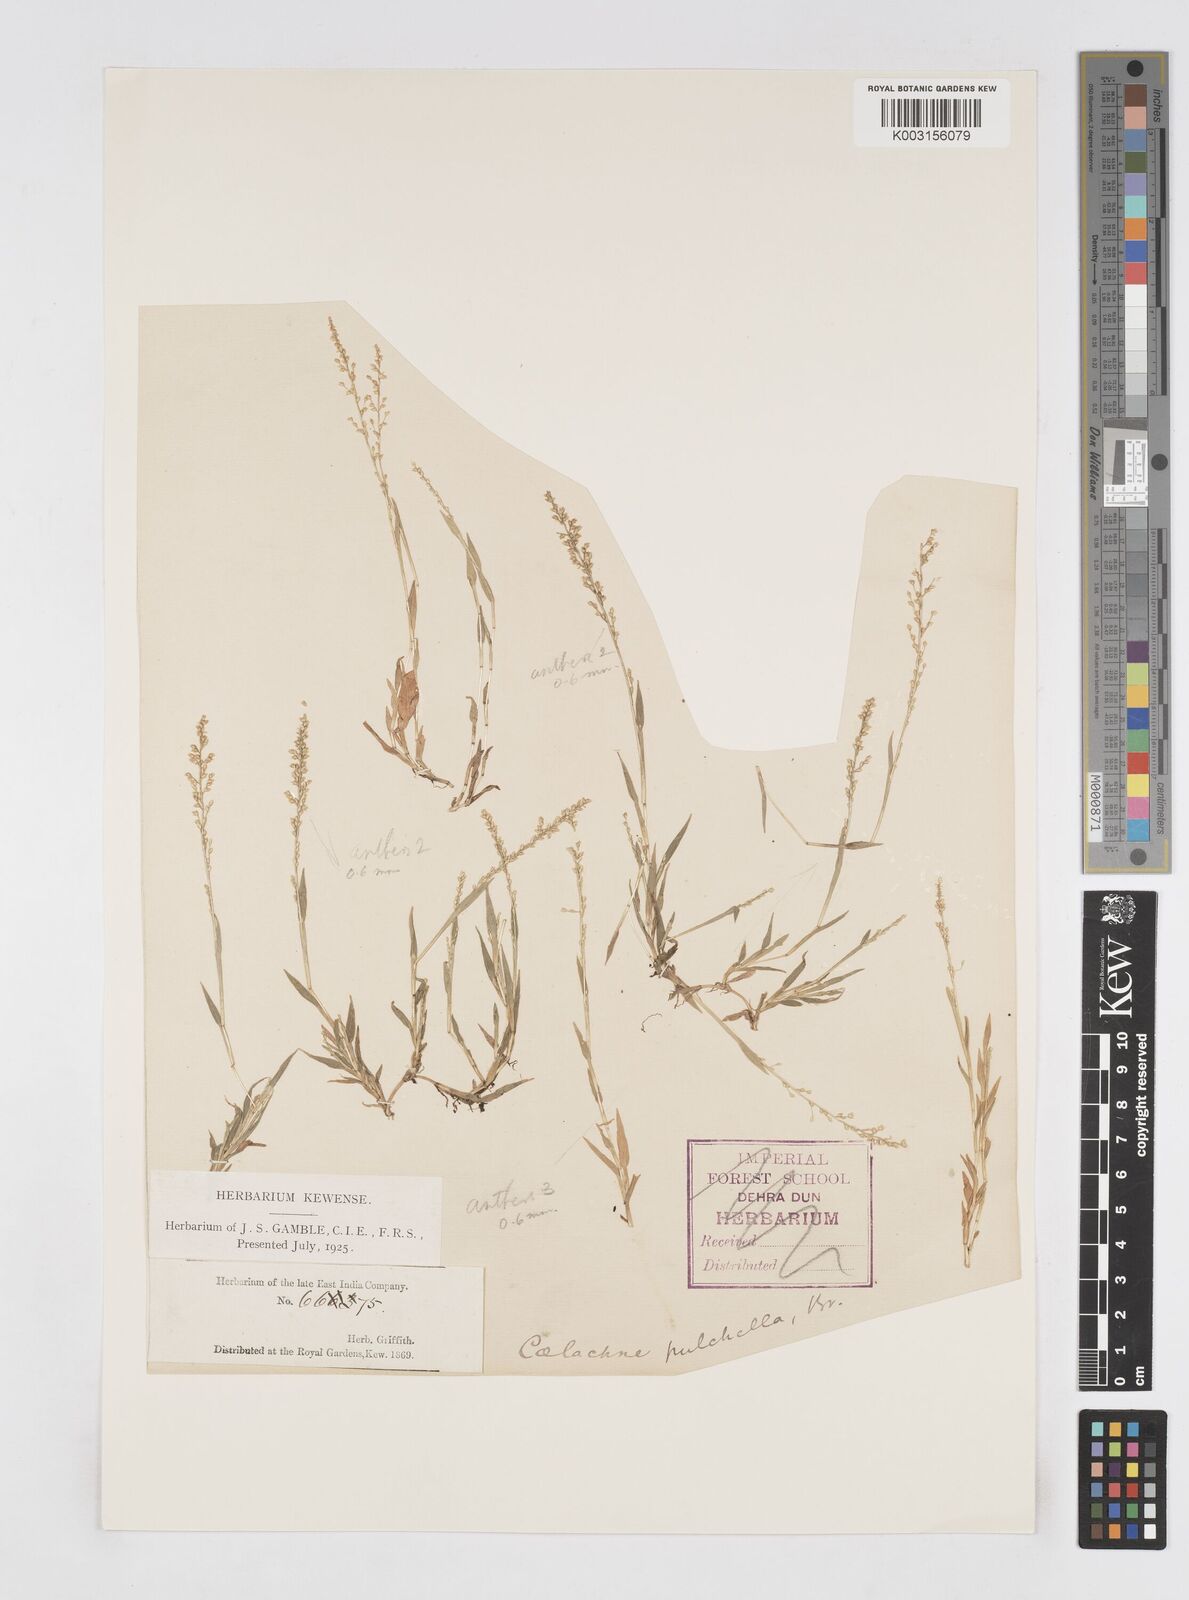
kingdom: Plantae
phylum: Tracheophyta
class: Liliopsida
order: Poales
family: Poaceae
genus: Coelachne
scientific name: Coelachne simpliciuscula
